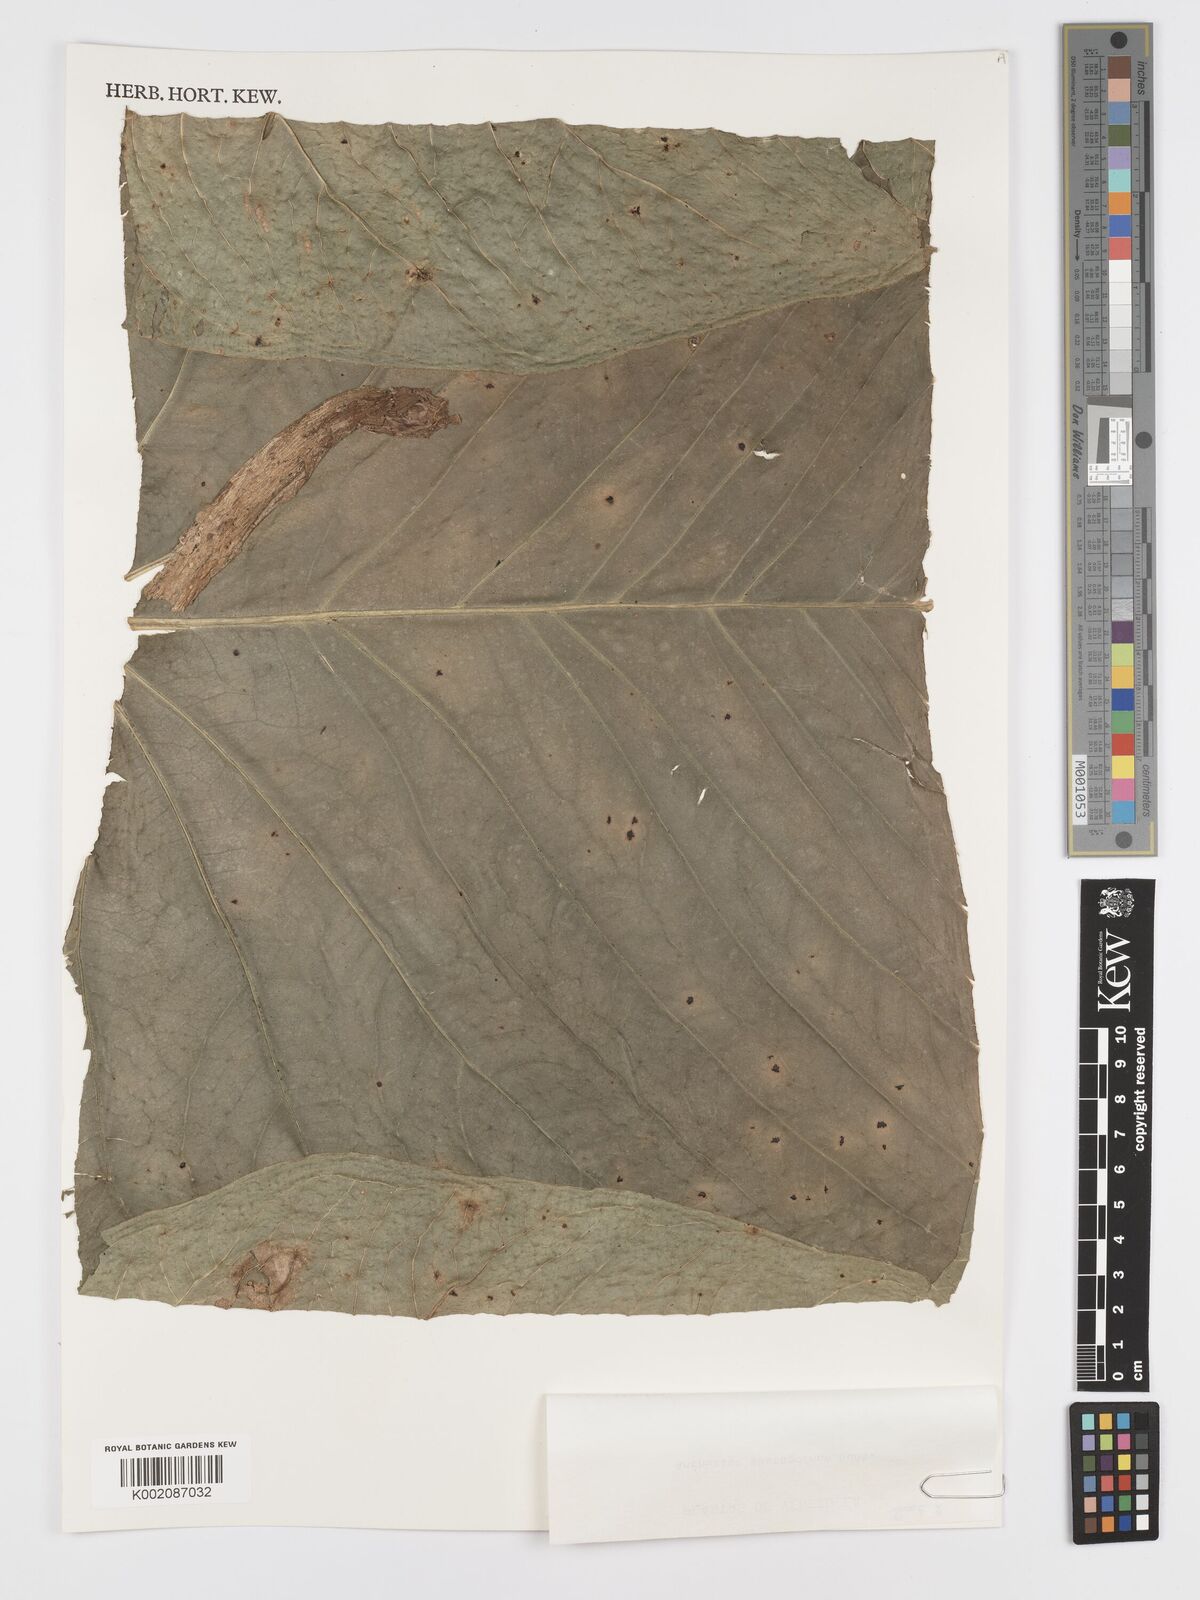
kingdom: Plantae
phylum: Tracheophyta
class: Liliopsida
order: Alismatales
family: Araceae
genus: Anthurium
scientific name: Anthurium smaragdinum
